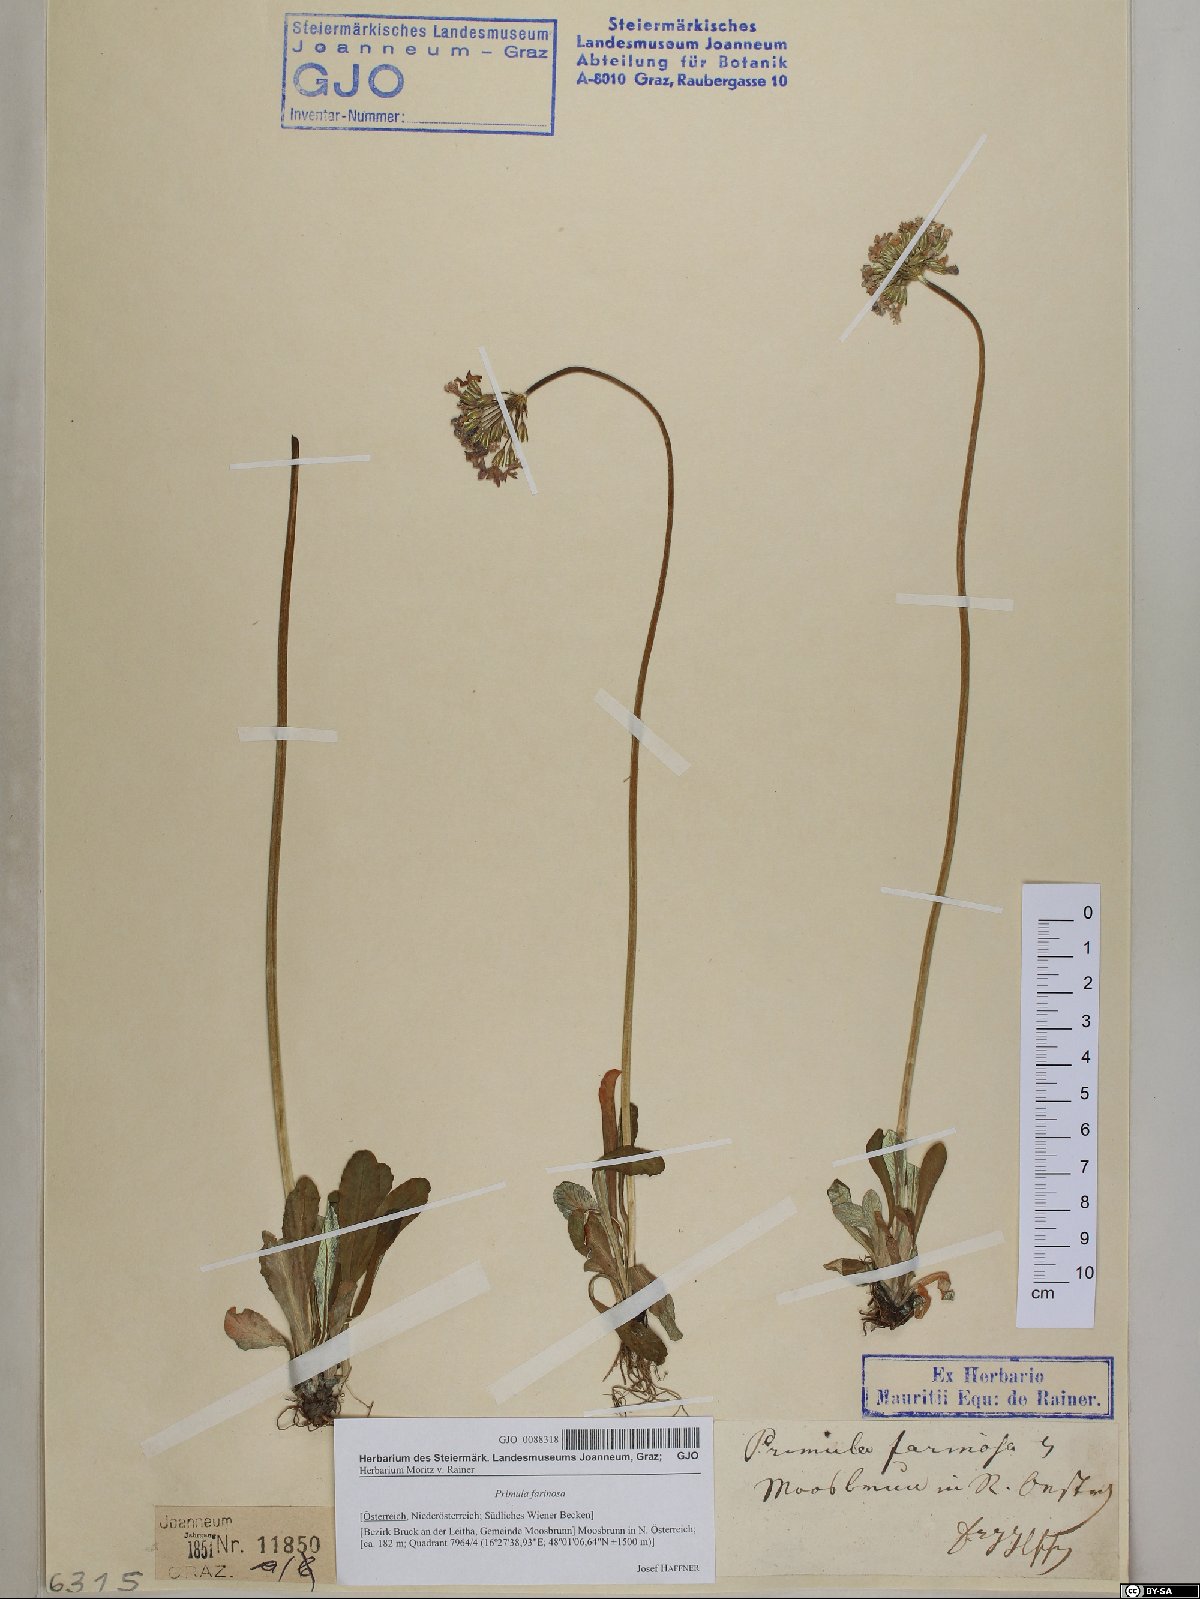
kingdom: Plantae
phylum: Tracheophyta
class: Magnoliopsida
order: Ericales
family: Primulaceae
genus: Primula
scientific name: Primula farinosa
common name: Bird's-eye primrose
